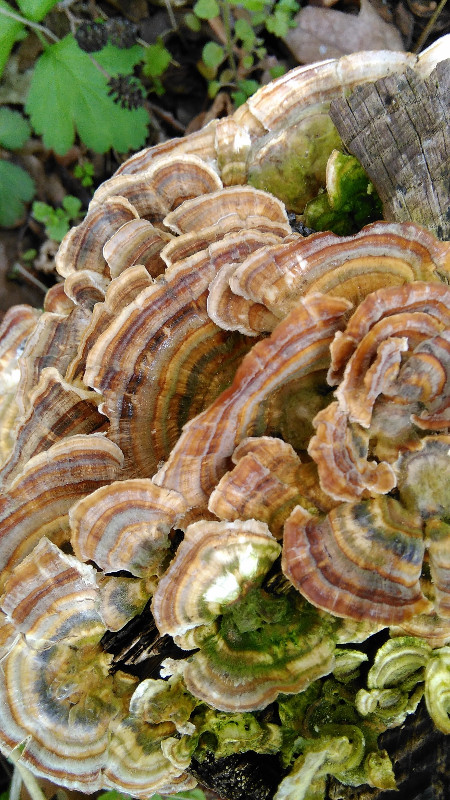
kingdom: Fungi
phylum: Basidiomycota
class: Agaricomycetes
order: Polyporales
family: Polyporaceae
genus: Trametes
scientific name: Trametes versicolor
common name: broget læderporesvamp
